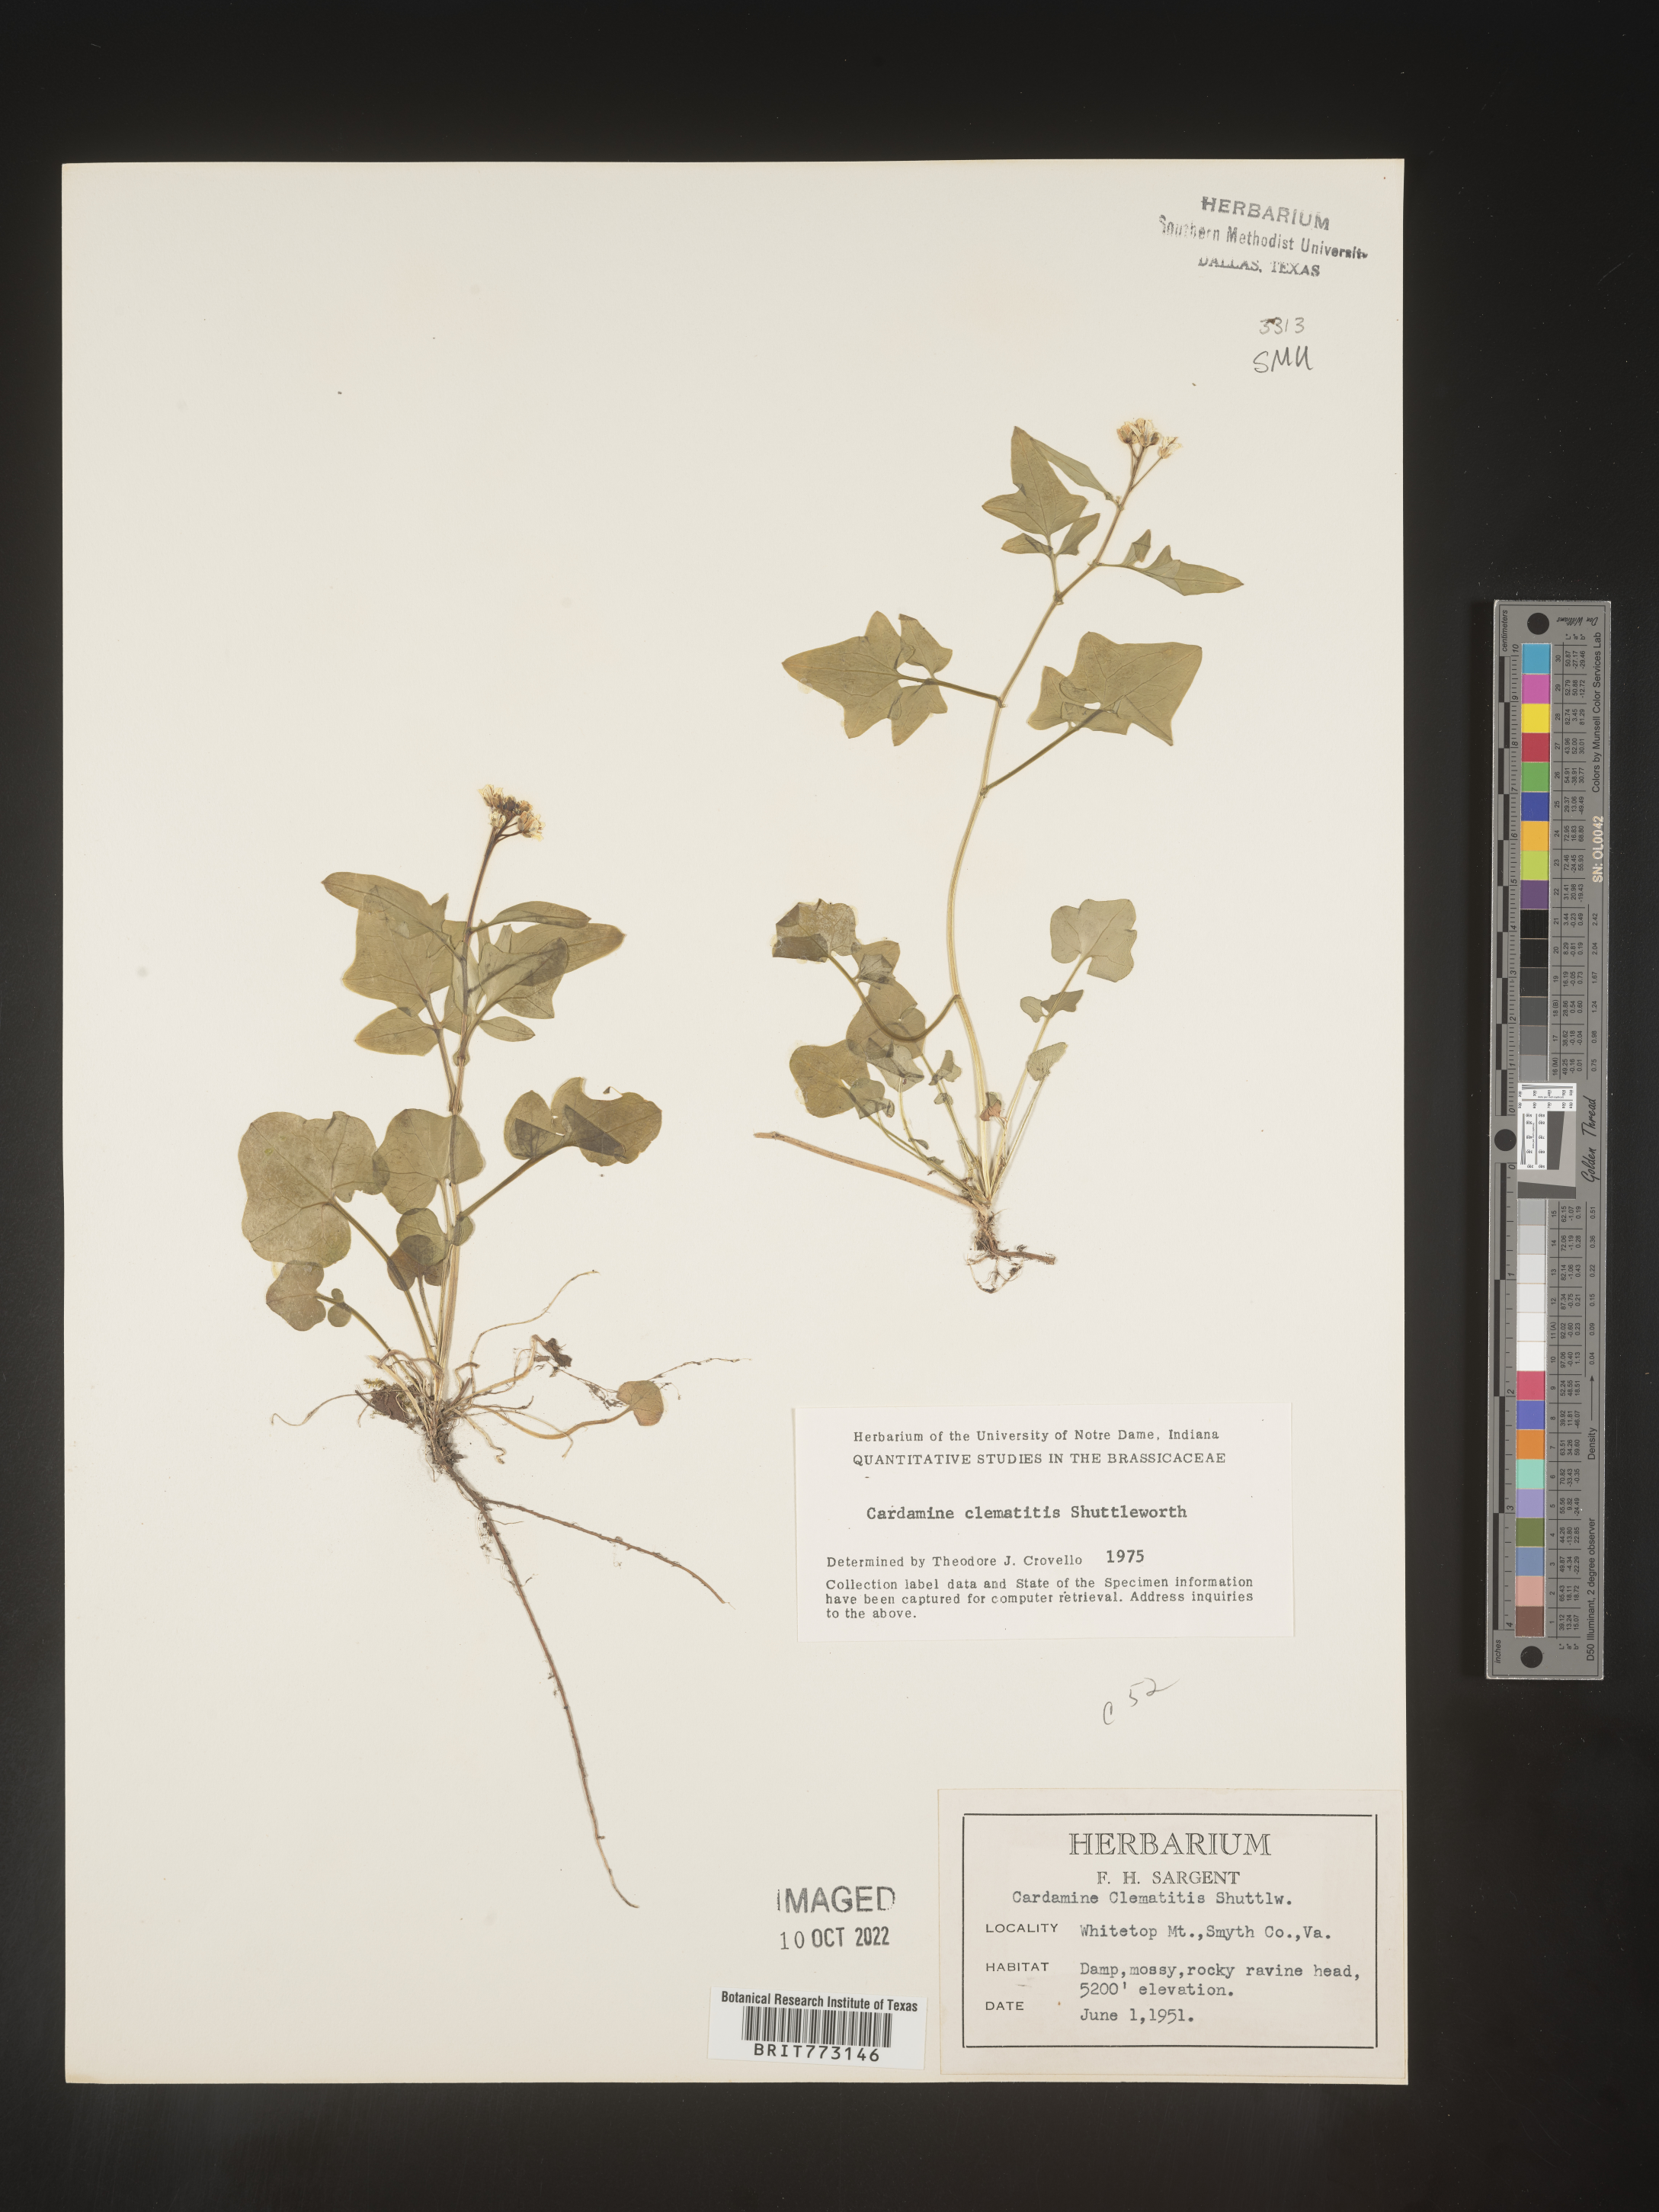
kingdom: Plantae
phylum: Tracheophyta
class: Magnoliopsida
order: Brassicales
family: Brassicaceae
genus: Cardamine
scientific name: Cardamine
